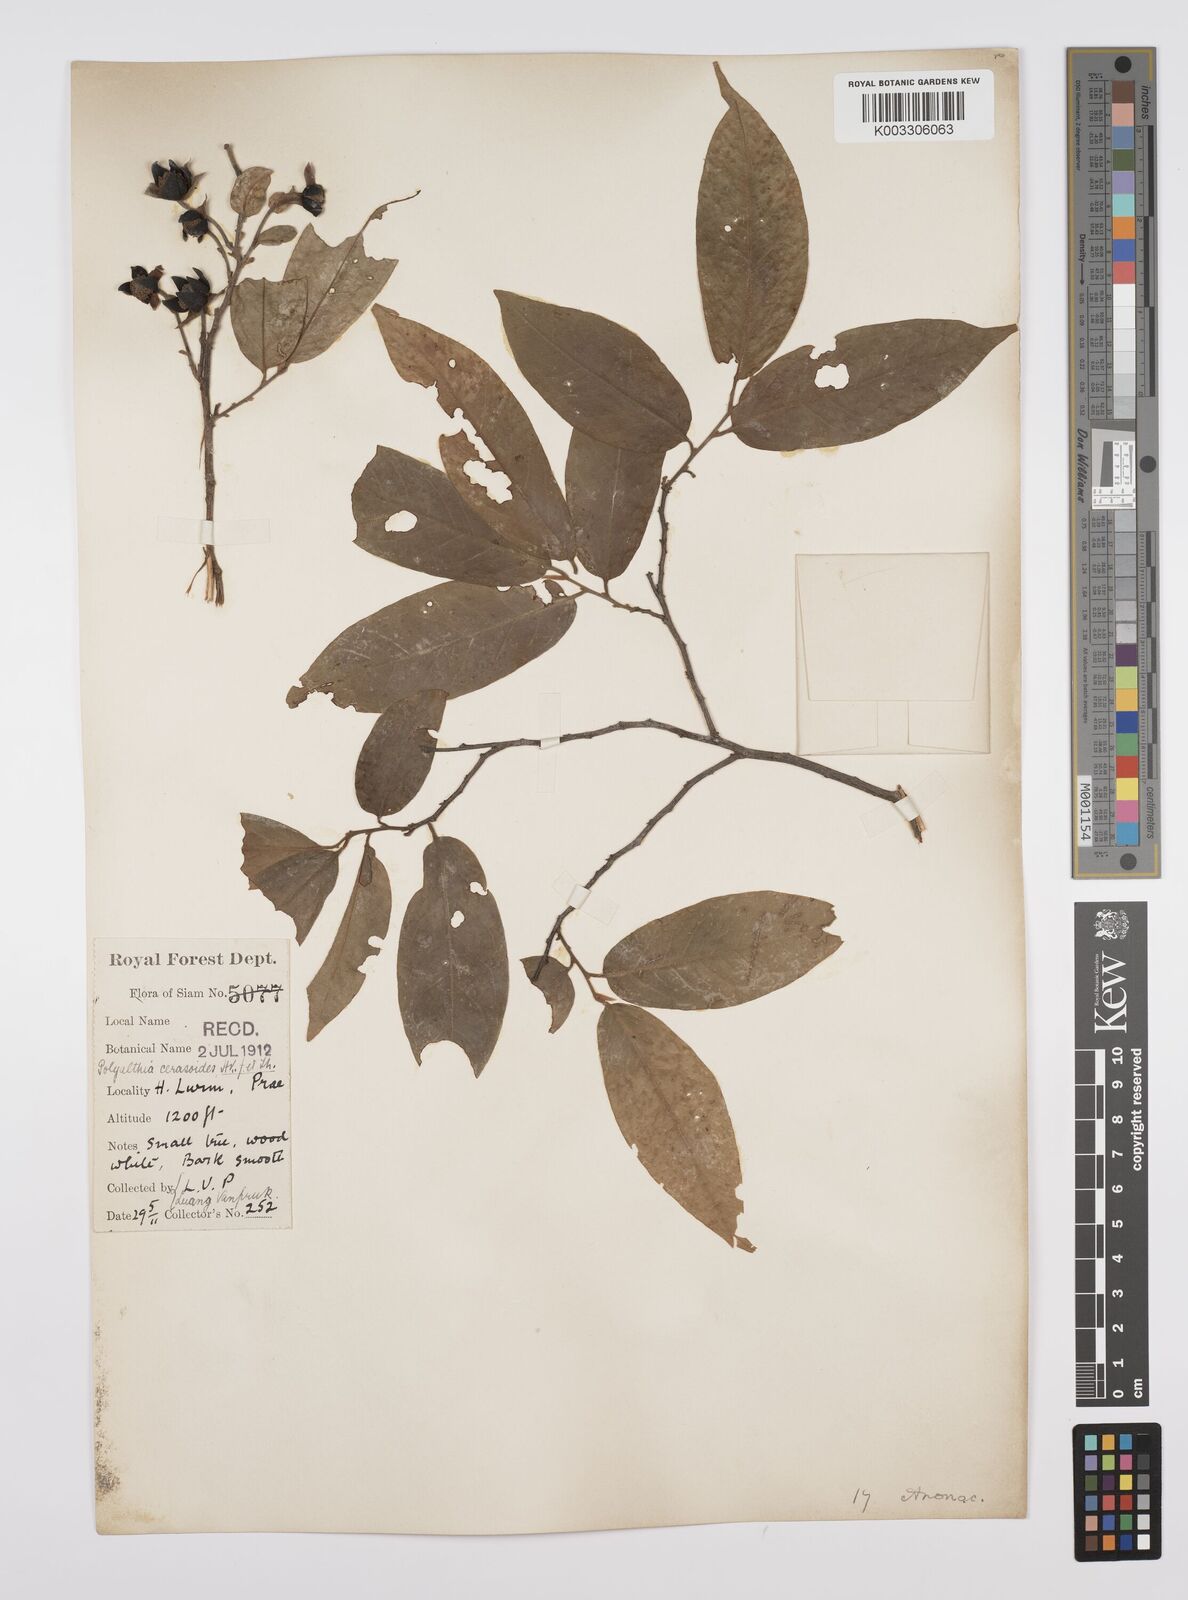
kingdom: Plantae
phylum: Tracheophyta
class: Magnoliopsida
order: Magnoliales
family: Annonaceae
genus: Hubera
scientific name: Hubera cerasoides
